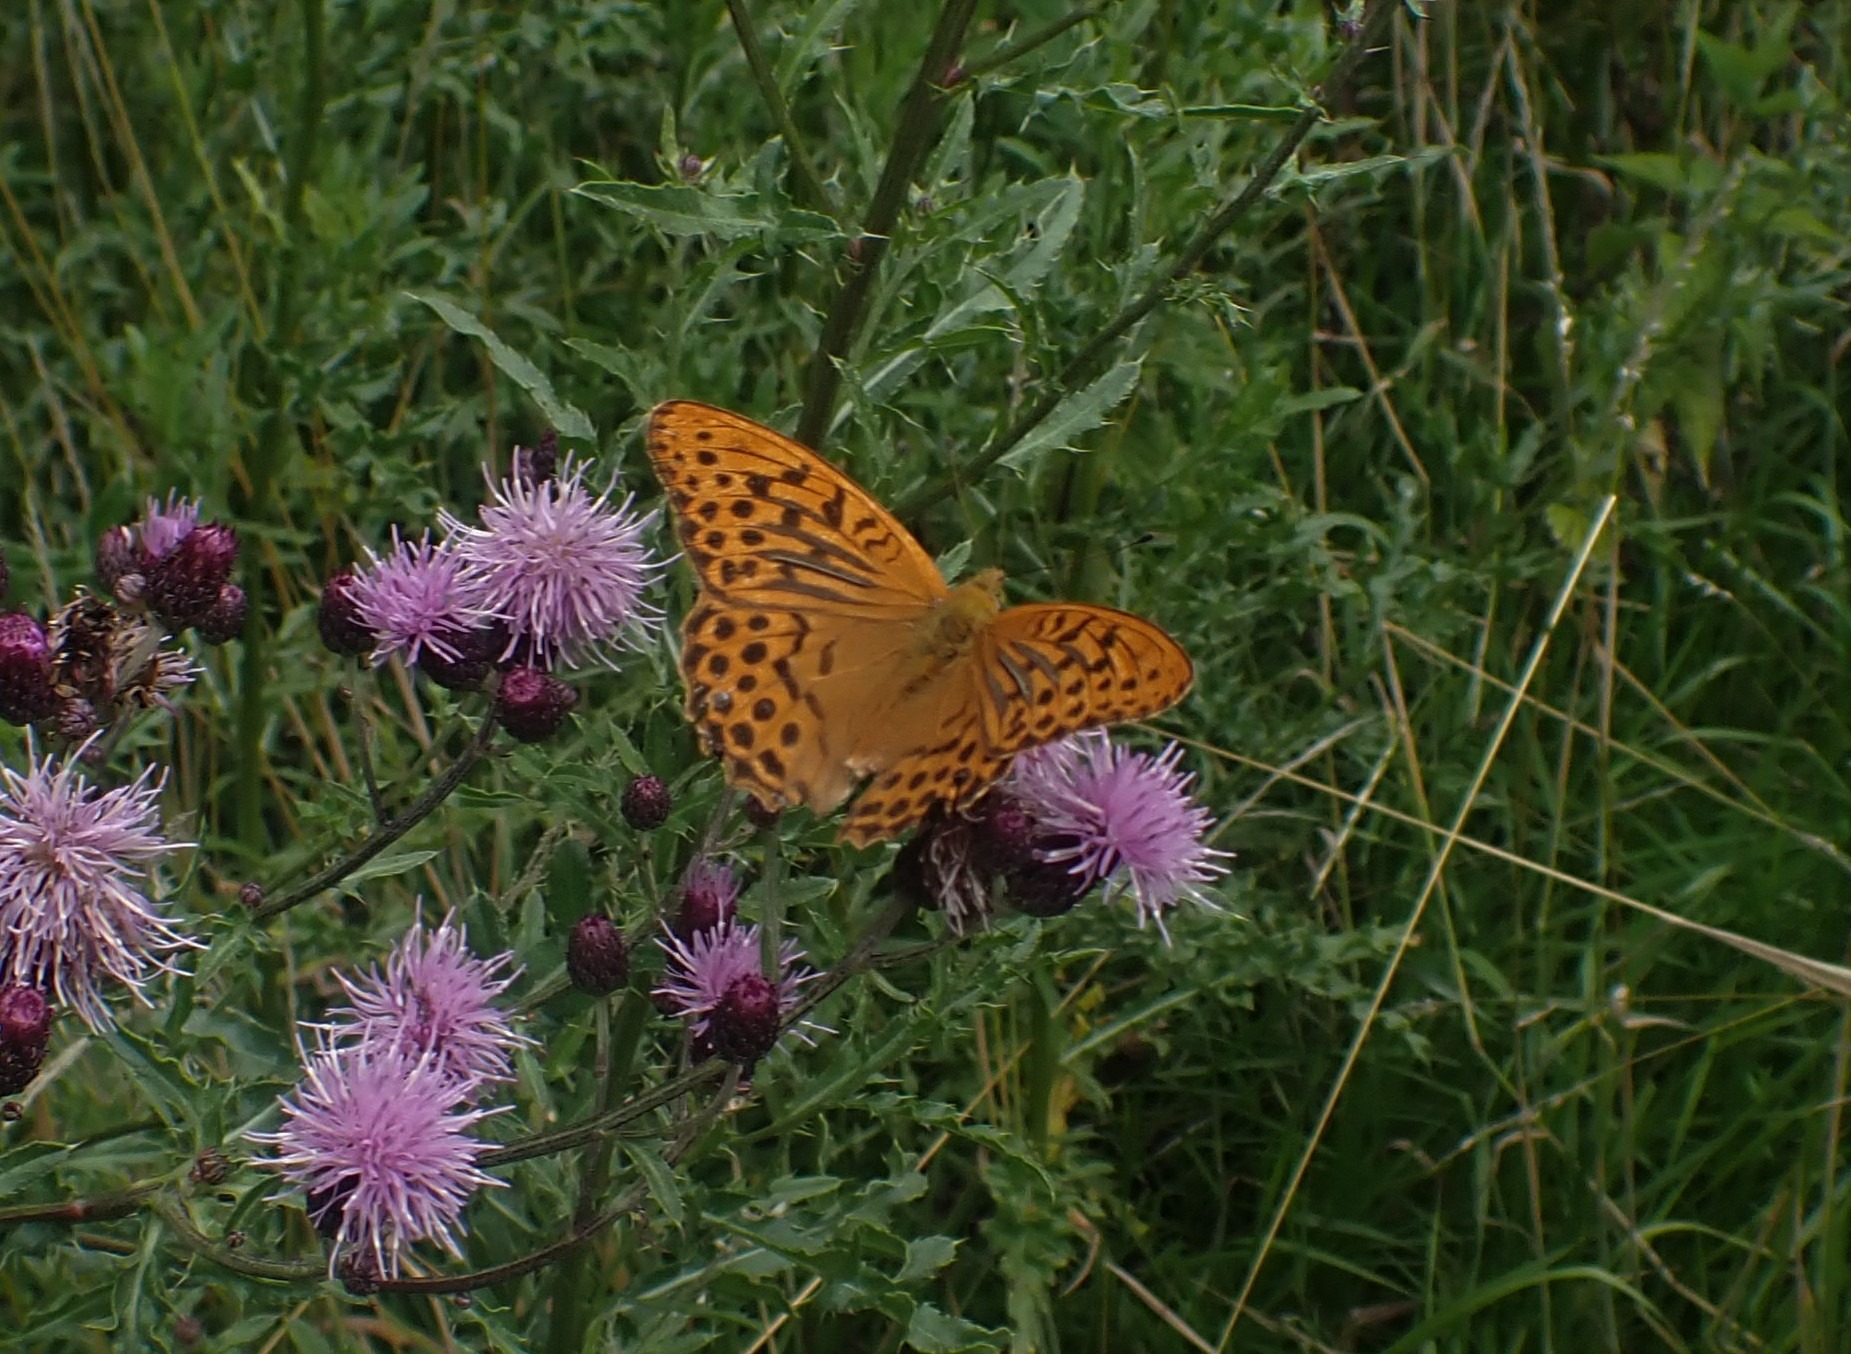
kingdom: Animalia
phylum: Arthropoda
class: Insecta
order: Lepidoptera
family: Nymphalidae
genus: Argynnis
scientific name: Argynnis paphia
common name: Kejserkåbe
